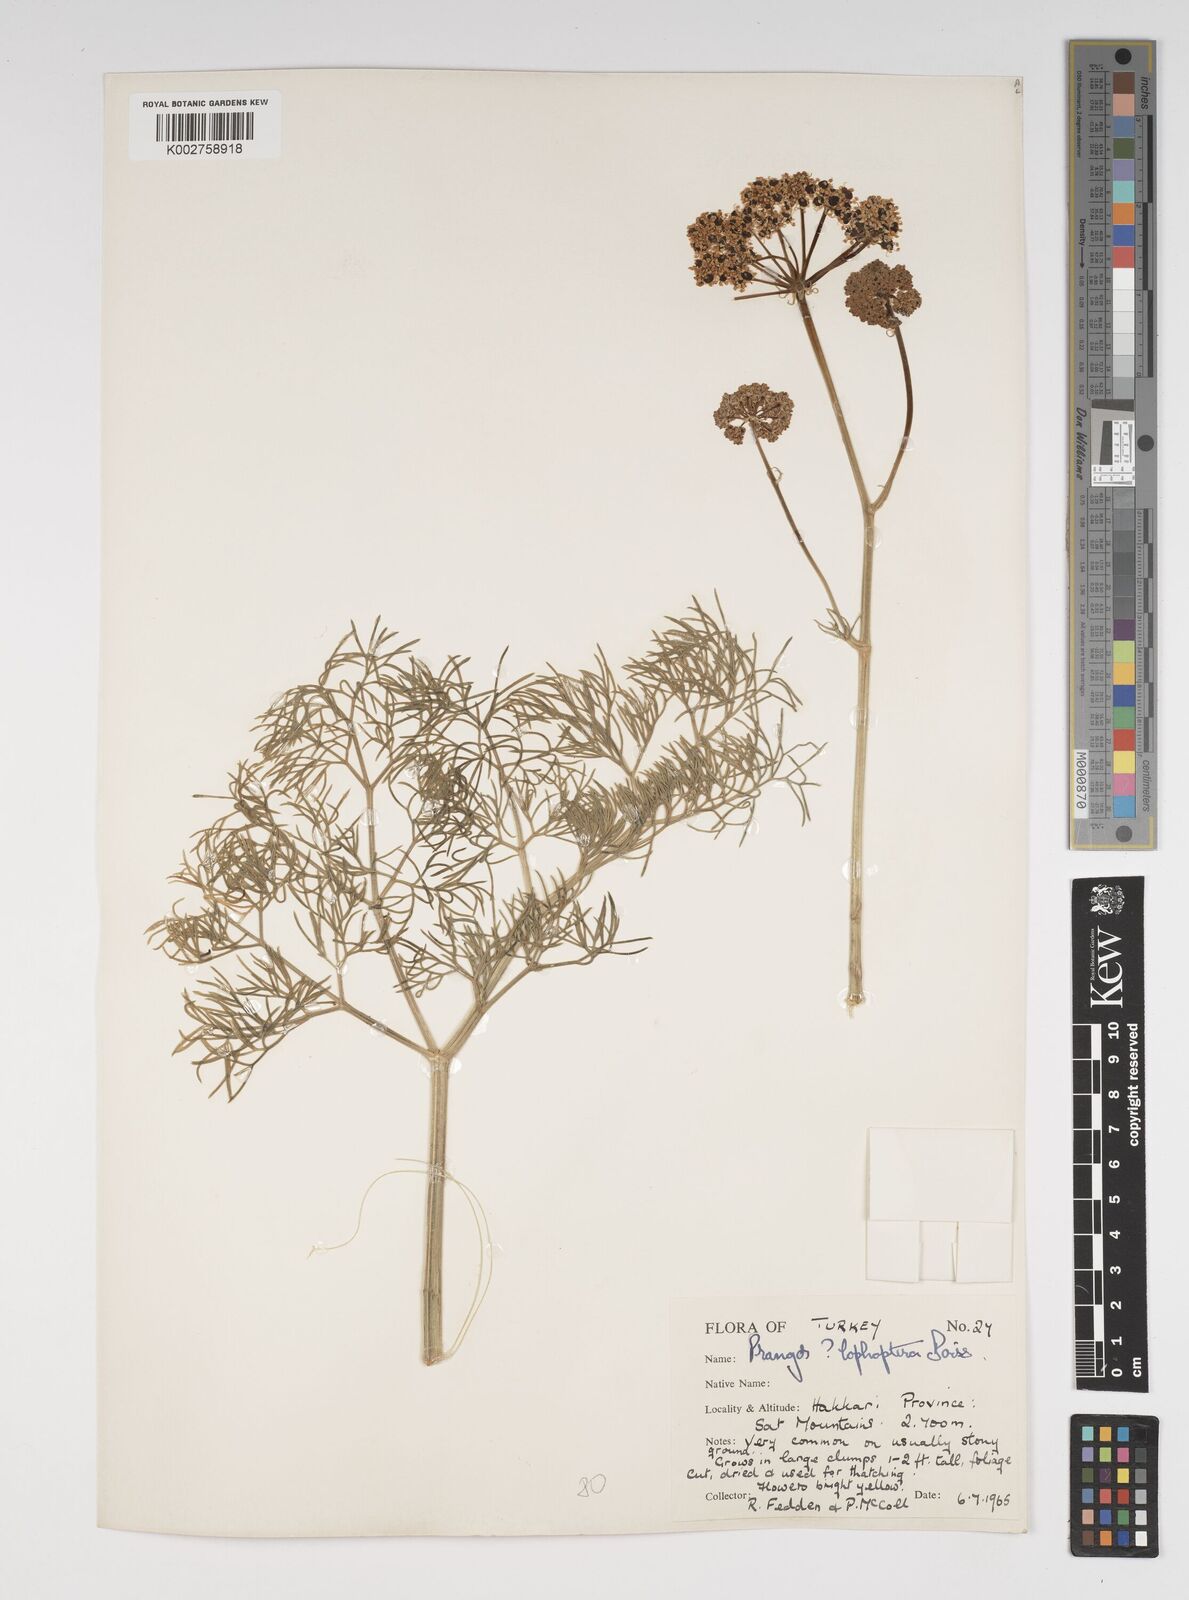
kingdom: Plantae
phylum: Tracheophyta
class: Magnoliopsida
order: Apiales
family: Apiaceae
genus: Prangos
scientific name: Prangos pabularia
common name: Yugan
